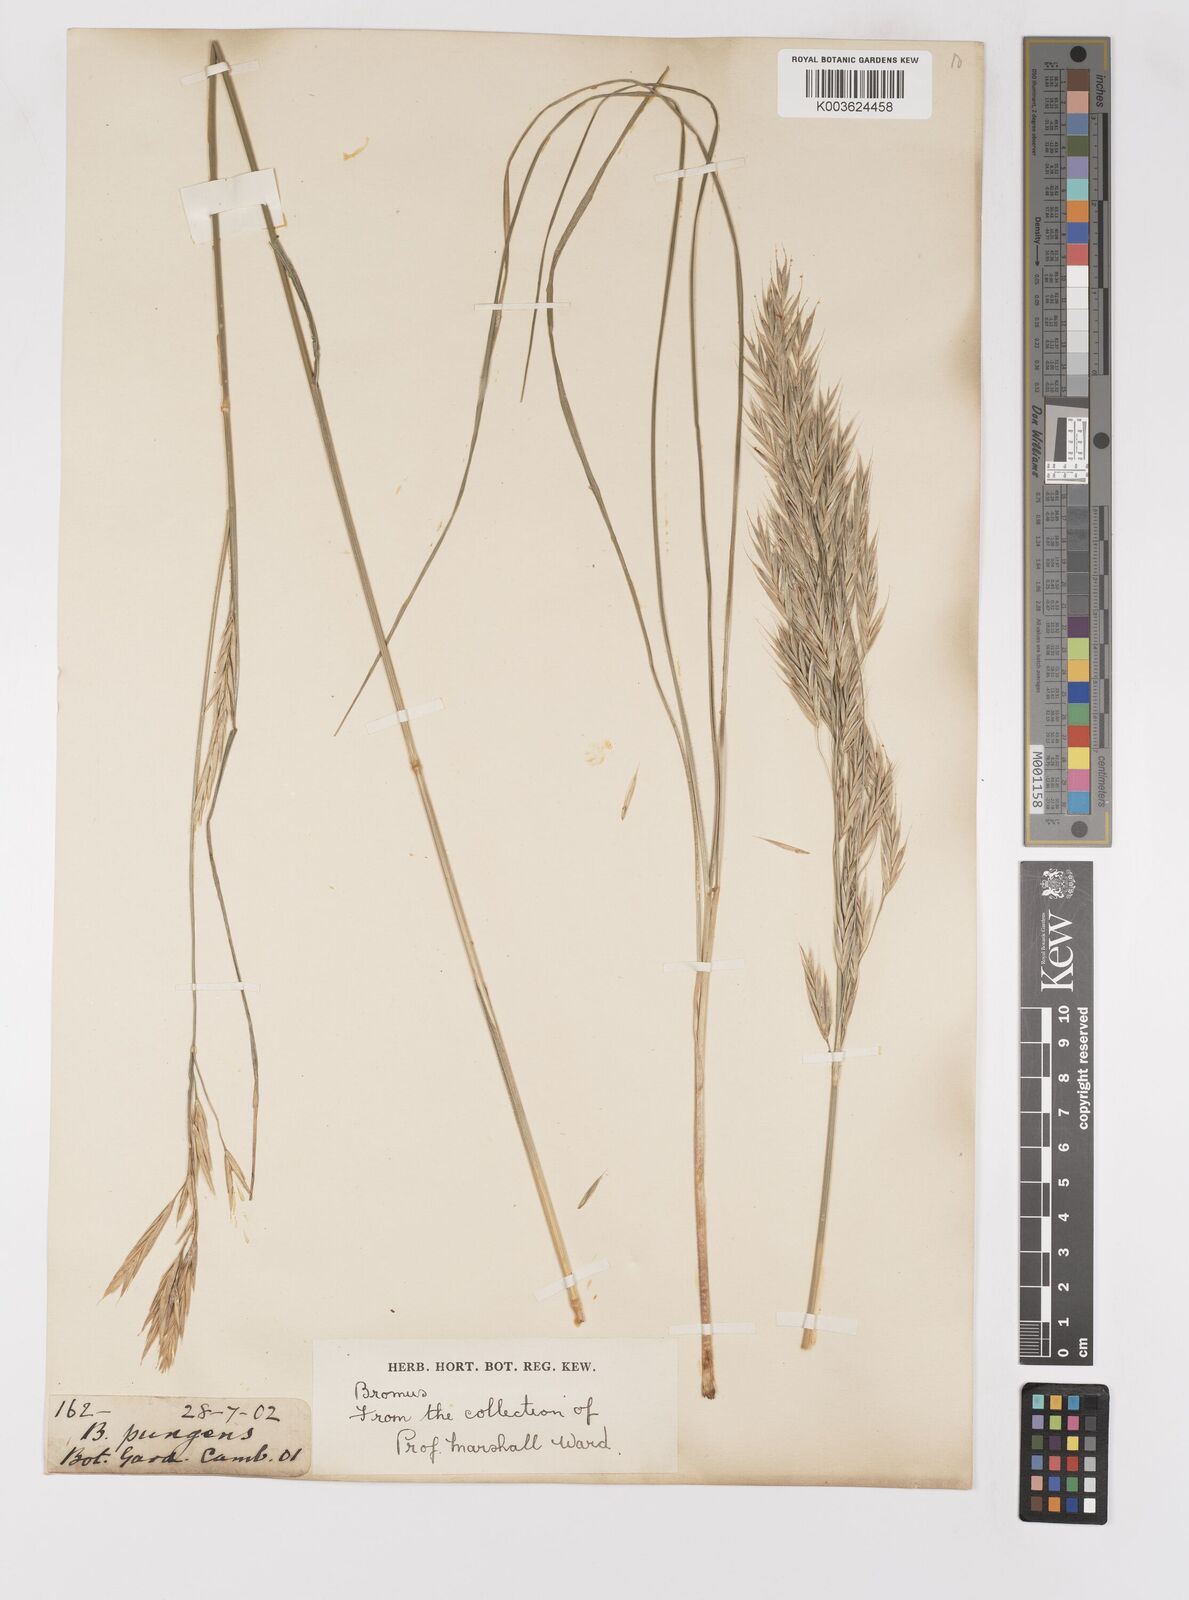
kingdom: Plantae
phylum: Tracheophyta
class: Liliopsida
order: Poales
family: Poaceae
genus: Bromus
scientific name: Bromus
